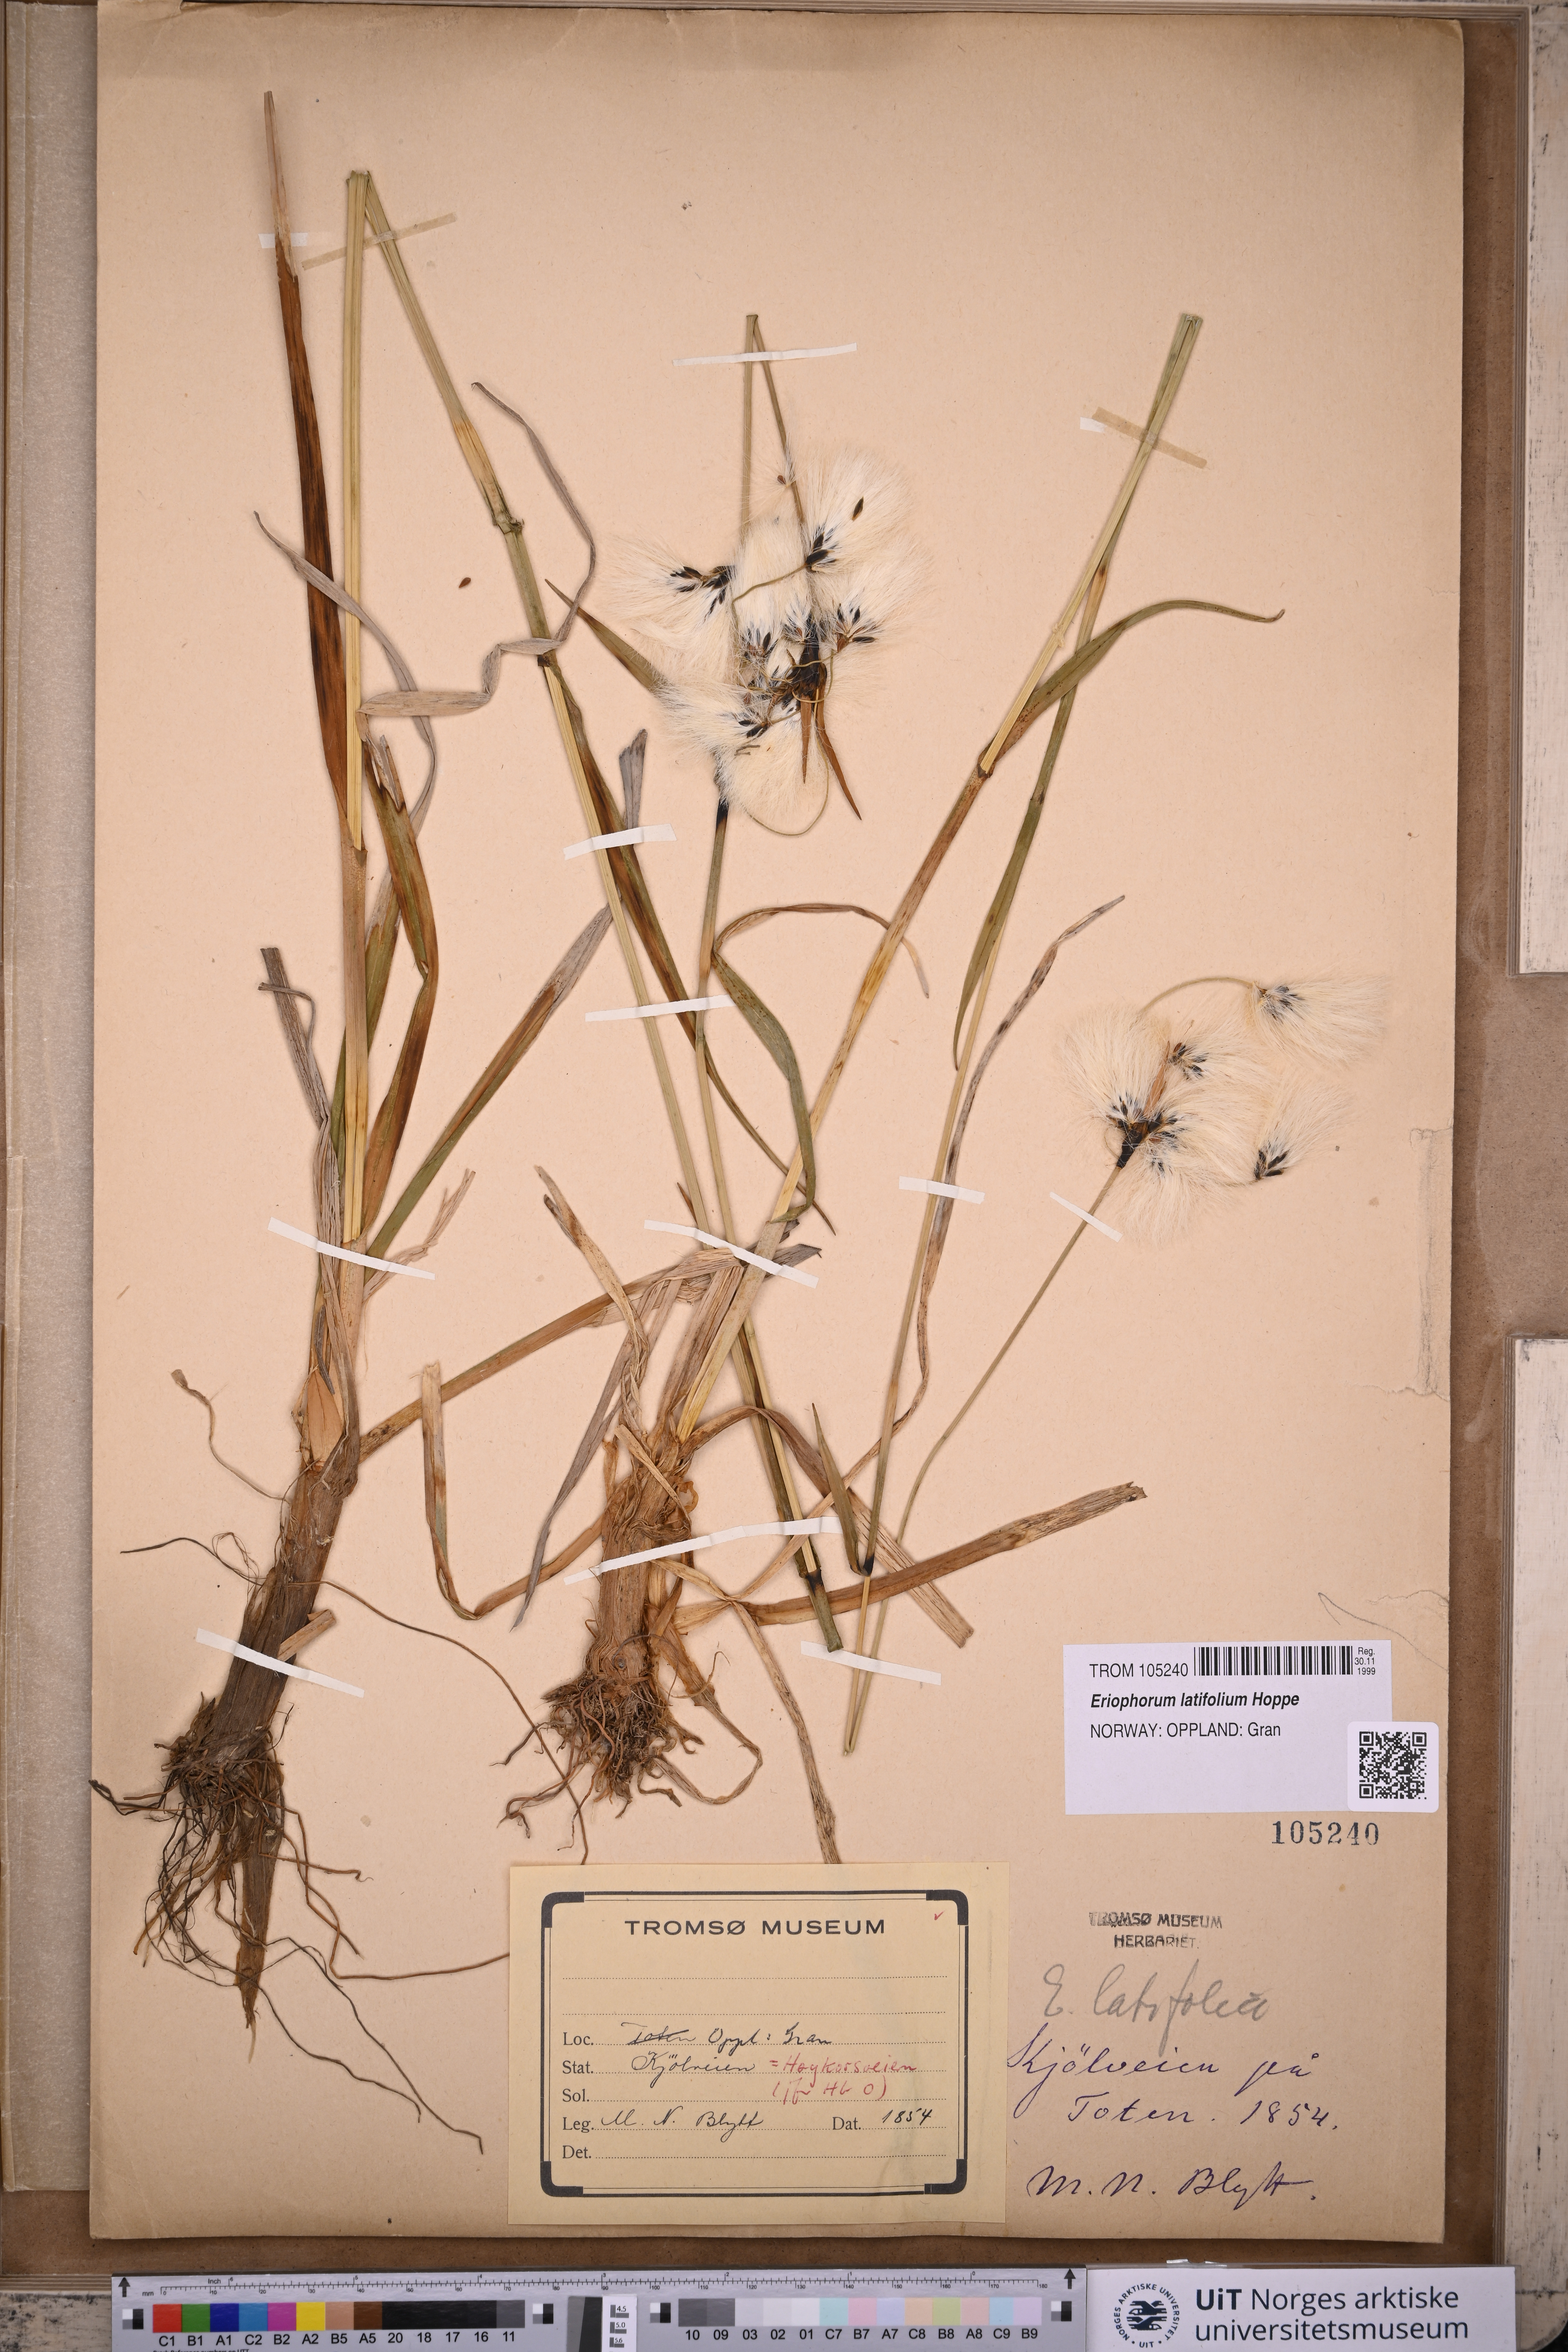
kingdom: Plantae
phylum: Tracheophyta
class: Liliopsida
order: Poales
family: Cyperaceae
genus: Eriophorum
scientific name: Eriophorum latifolium
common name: Broad-leaved cottongrass
